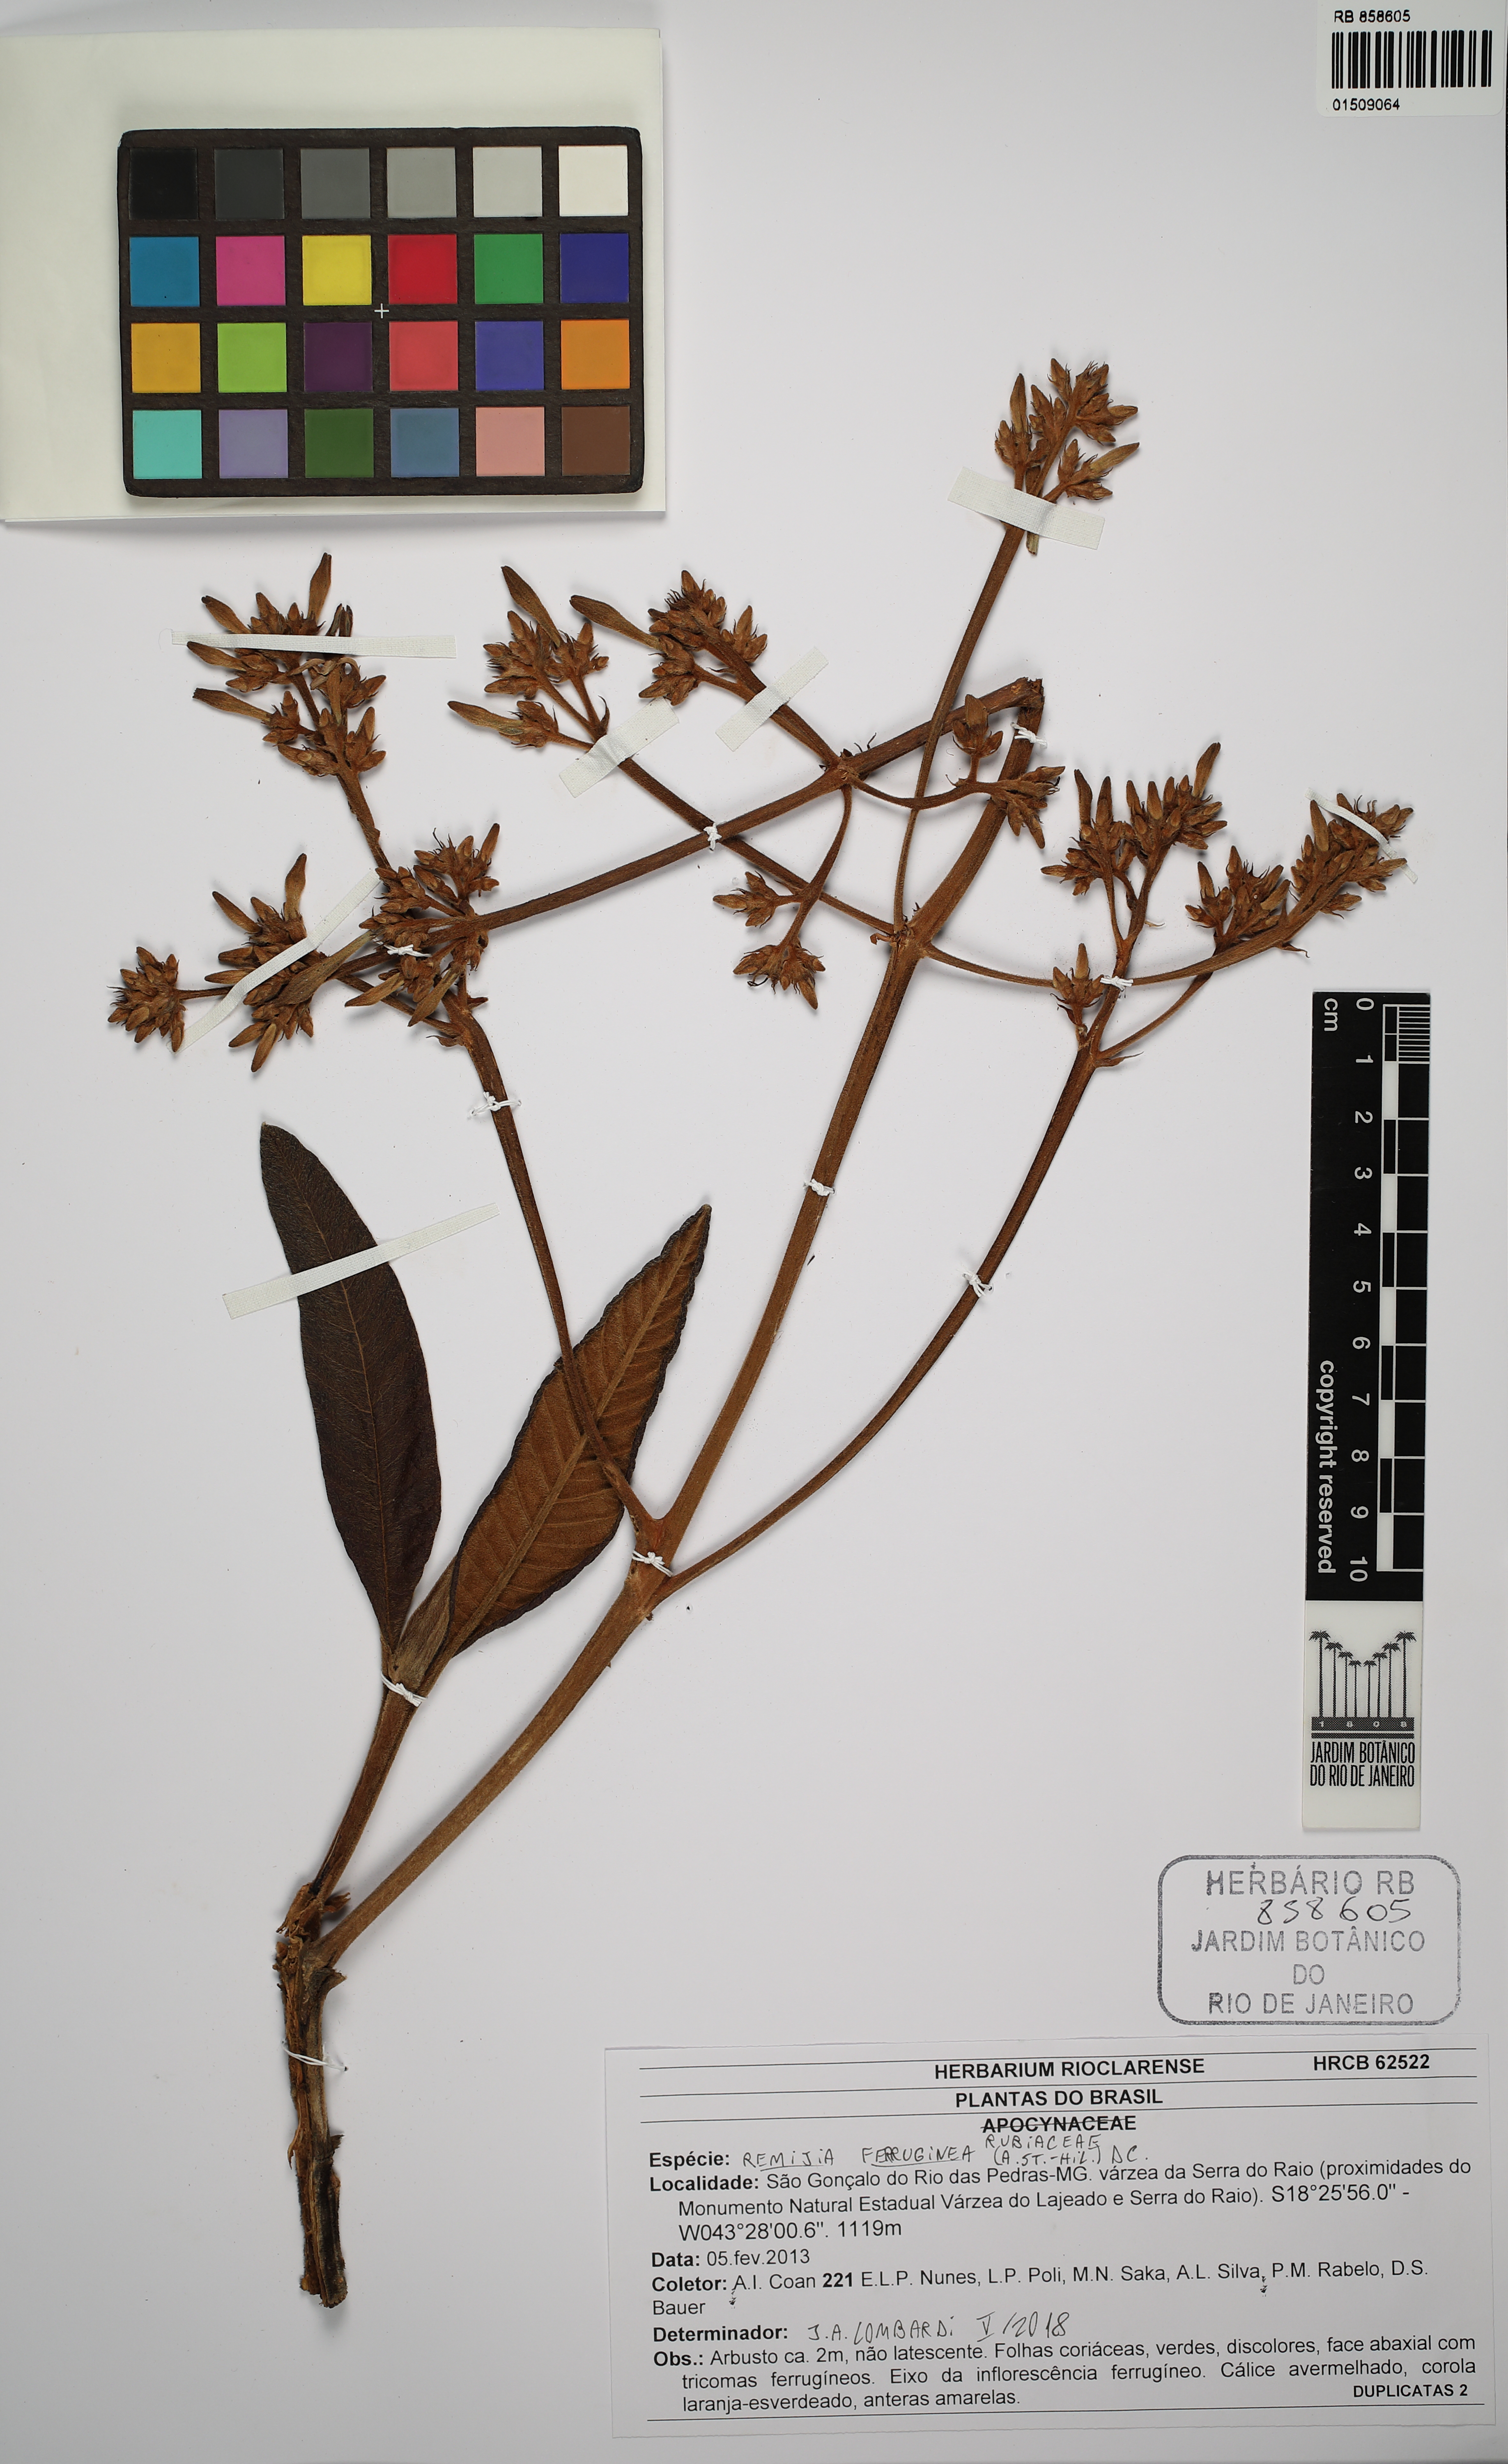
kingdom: Plantae
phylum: Tracheophyta
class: Magnoliopsida
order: Gentianales
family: Rubiaceae
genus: Remijia
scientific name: Remijia ferruginea
